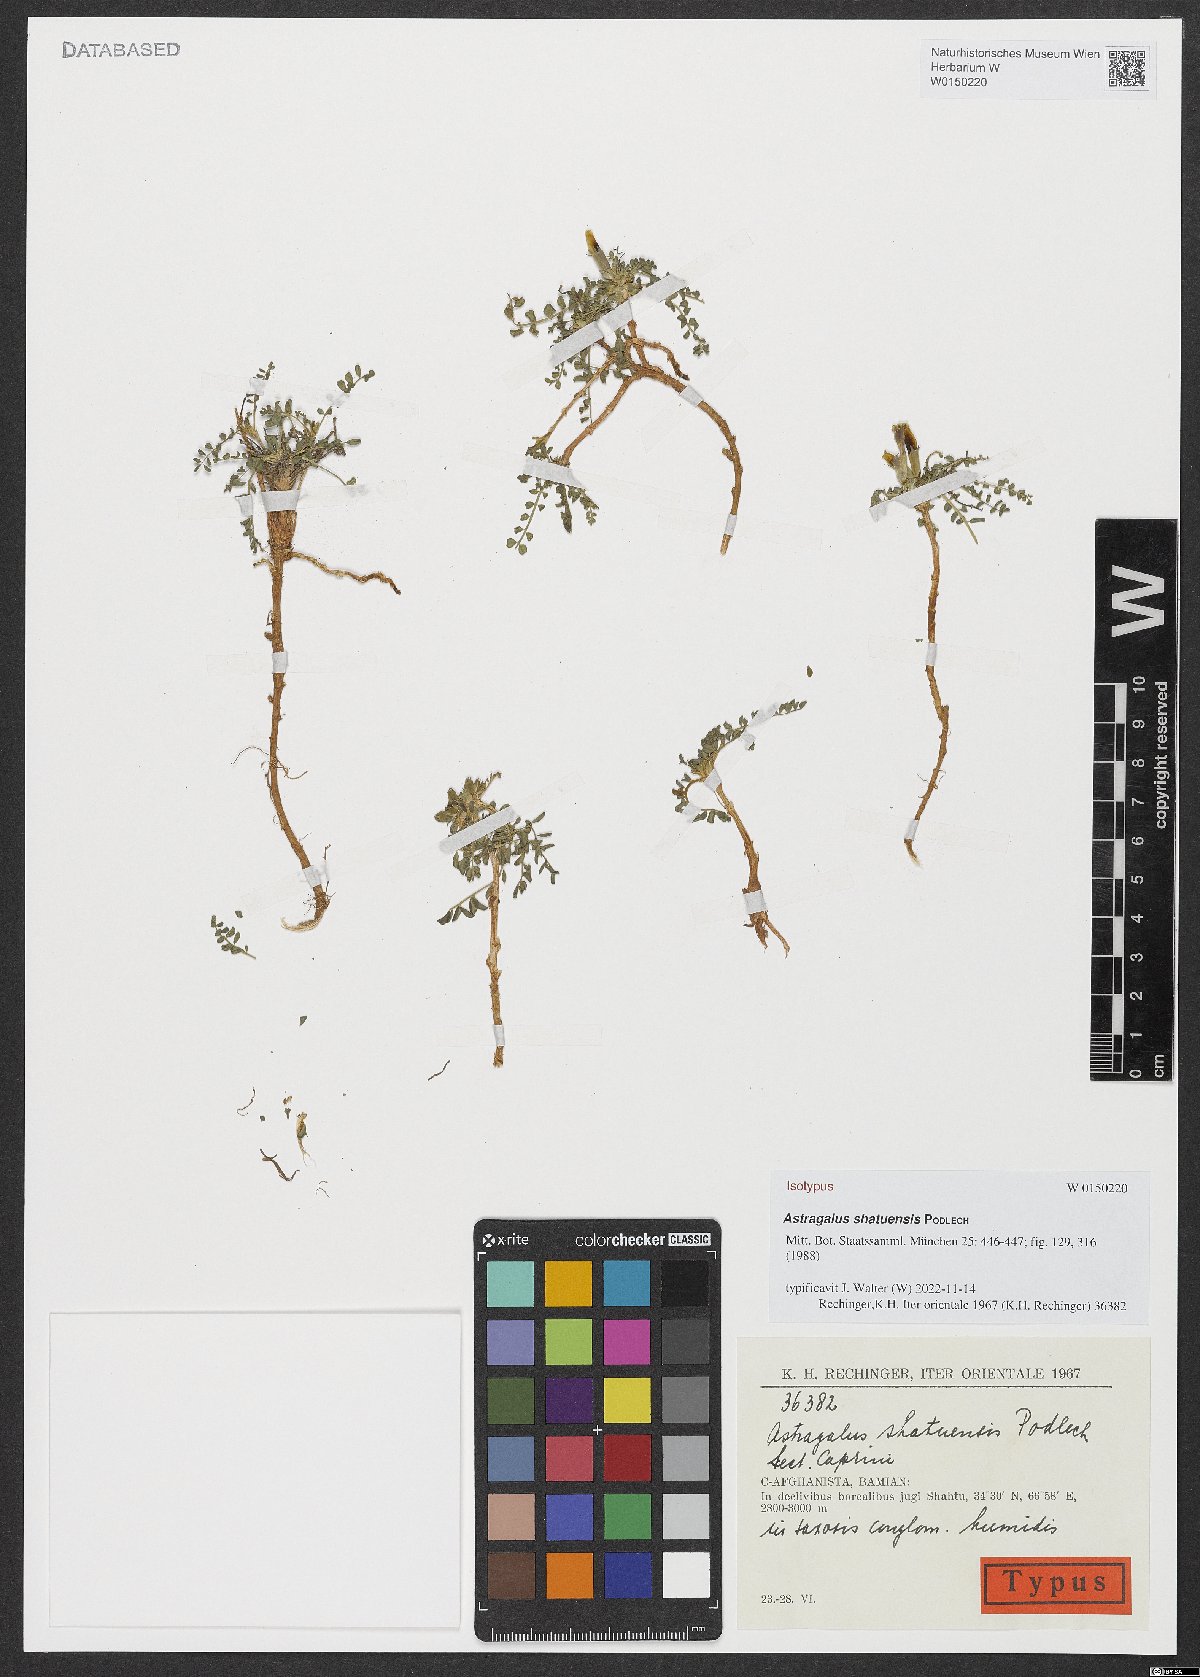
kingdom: Plantae
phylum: Tracheophyta
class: Magnoliopsida
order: Fabales
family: Fabaceae
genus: Astragalus
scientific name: Astragalus shatuensis
